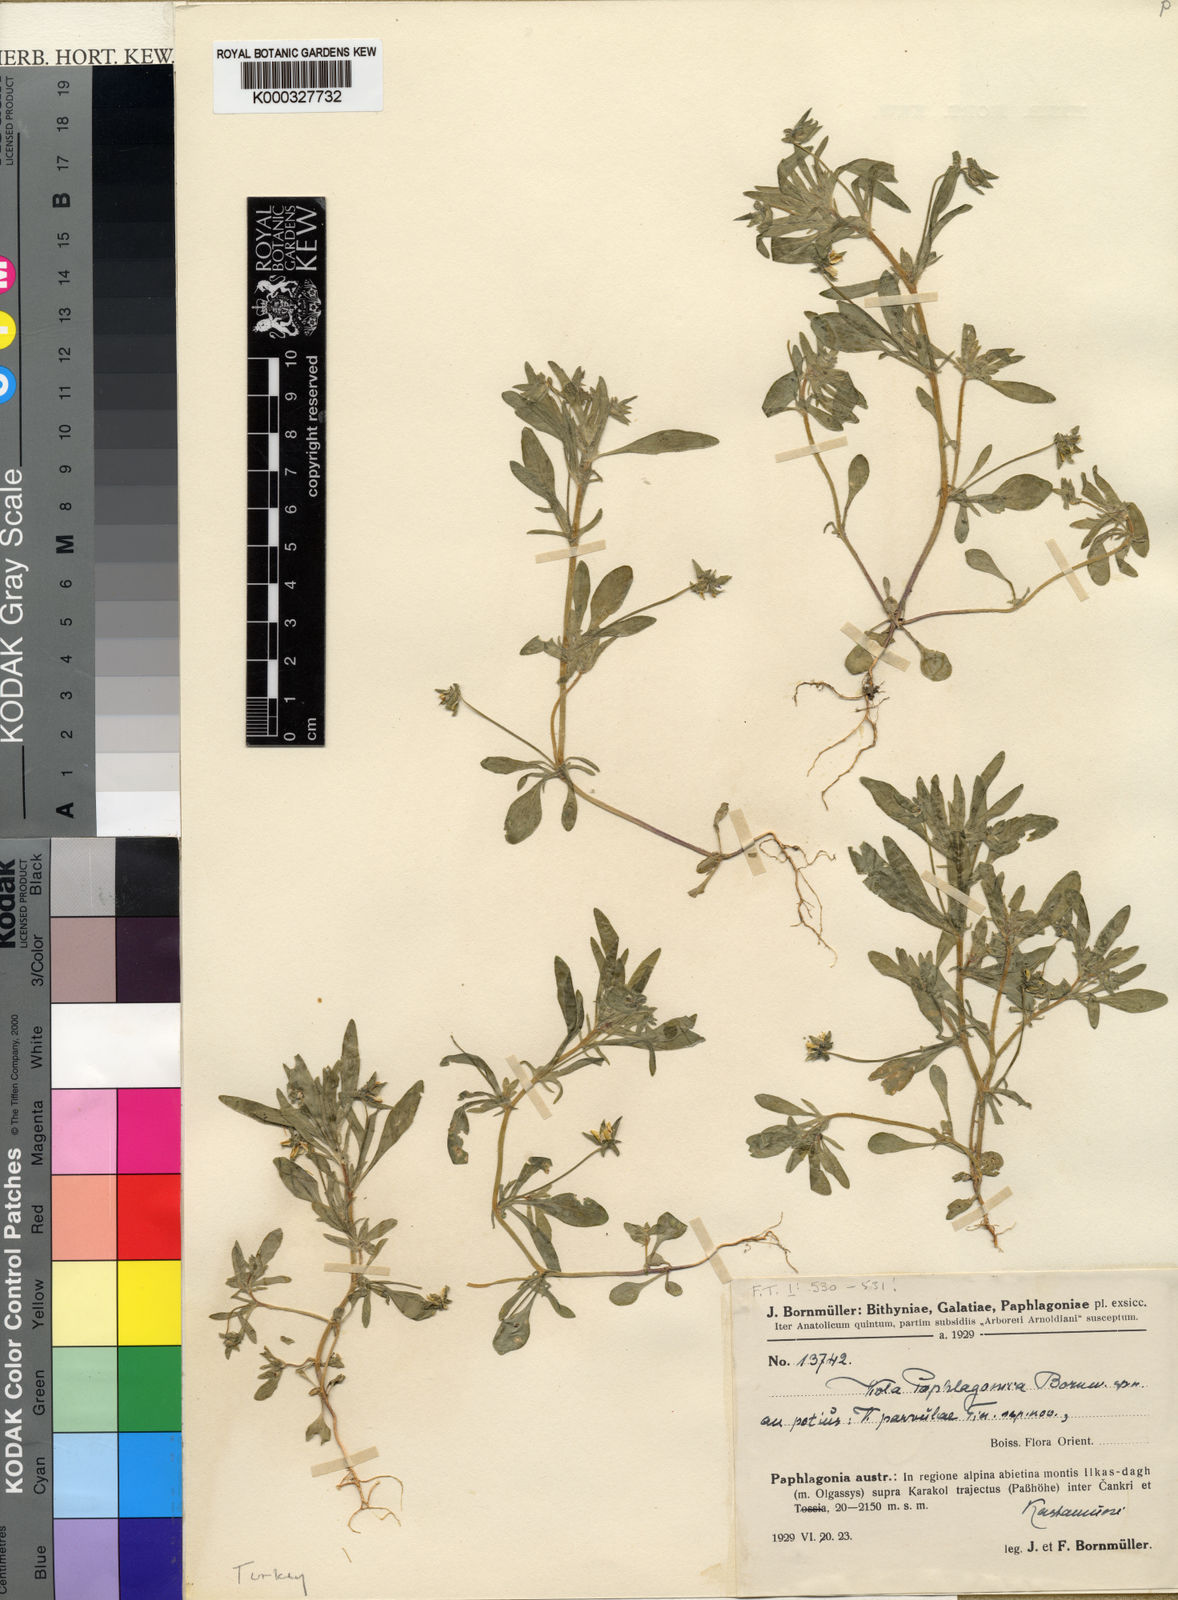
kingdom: Plantae
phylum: Tracheophyta
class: Magnoliopsida
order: Malpighiales
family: Violaceae
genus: Viola
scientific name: Viola parvula
